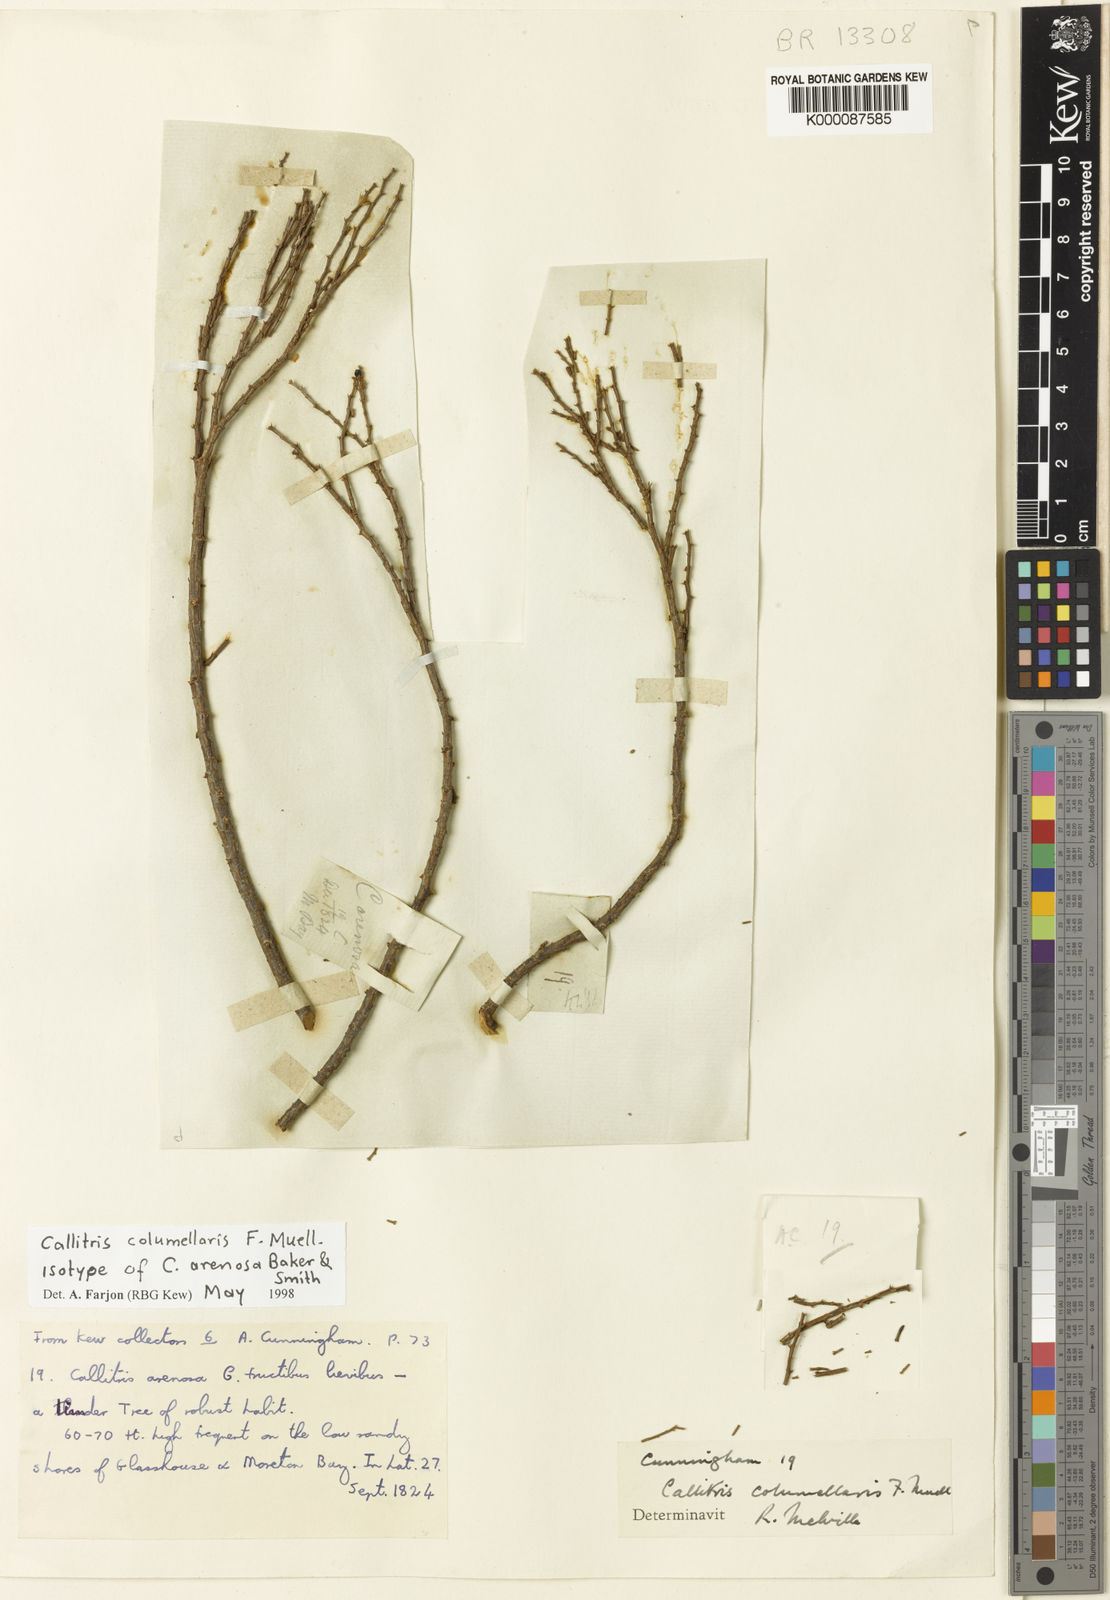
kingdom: Plantae
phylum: Tracheophyta
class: Pinopsida
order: Pinales
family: Cupressaceae
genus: Callitris
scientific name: Callitris columellaris
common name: White cypress-pine
